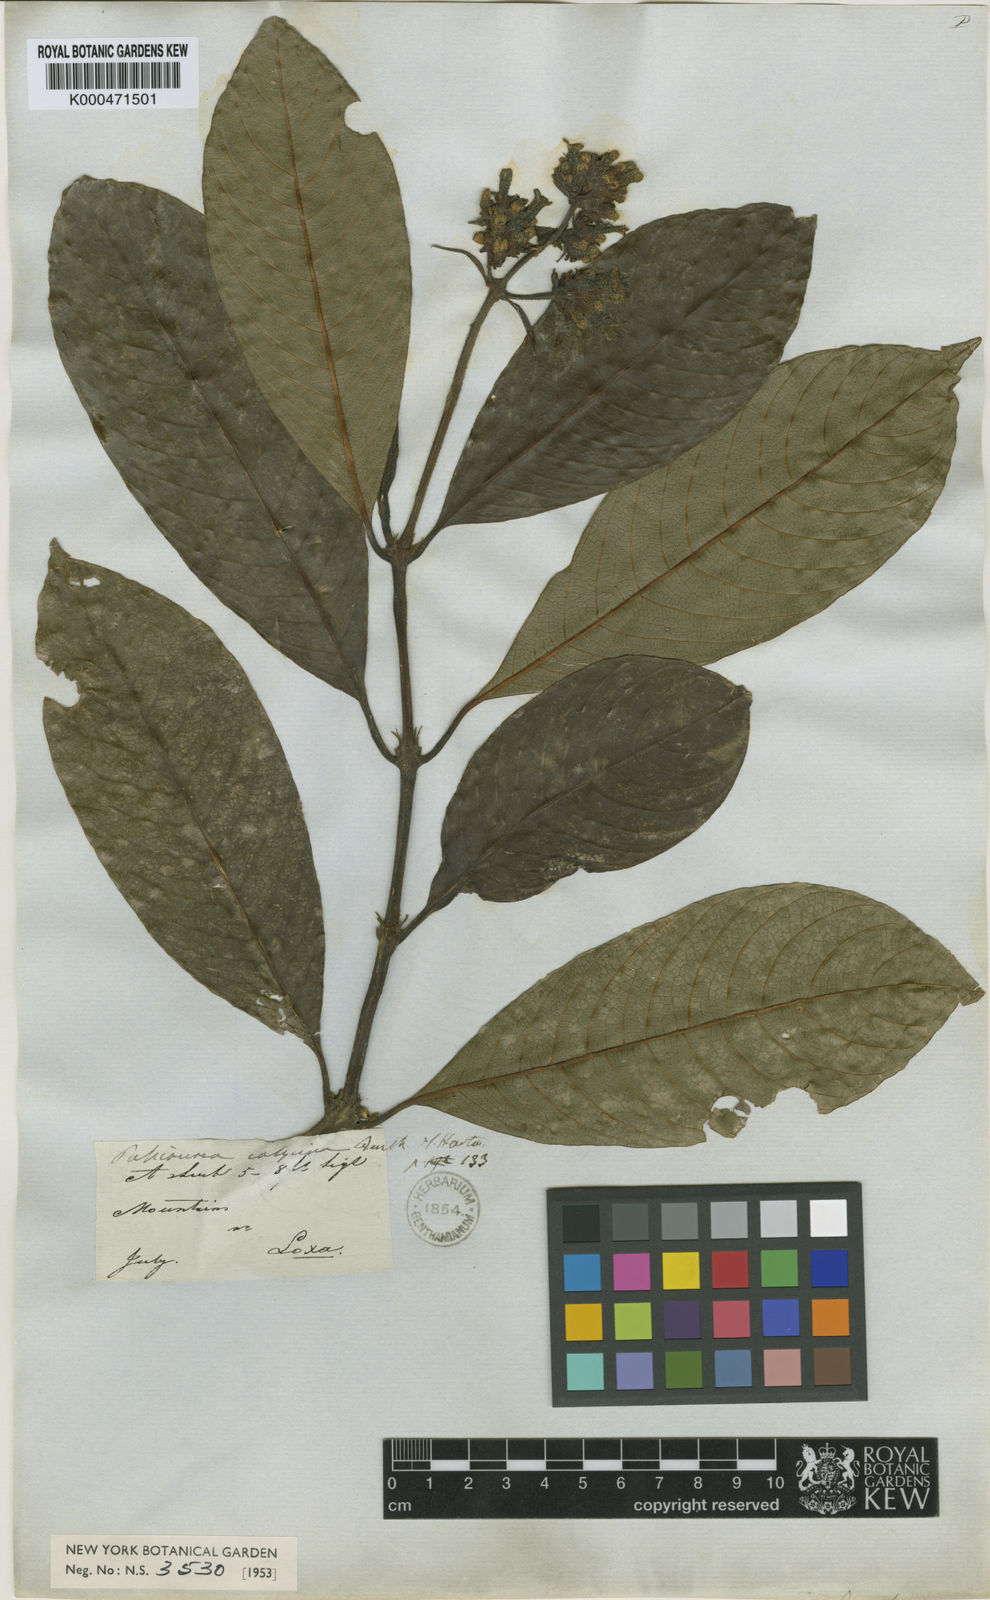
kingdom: Plantae
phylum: Tracheophyta
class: Magnoliopsida
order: Gentianales
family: Rubiaceae
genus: Palicourea
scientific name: Palicourea calycina
